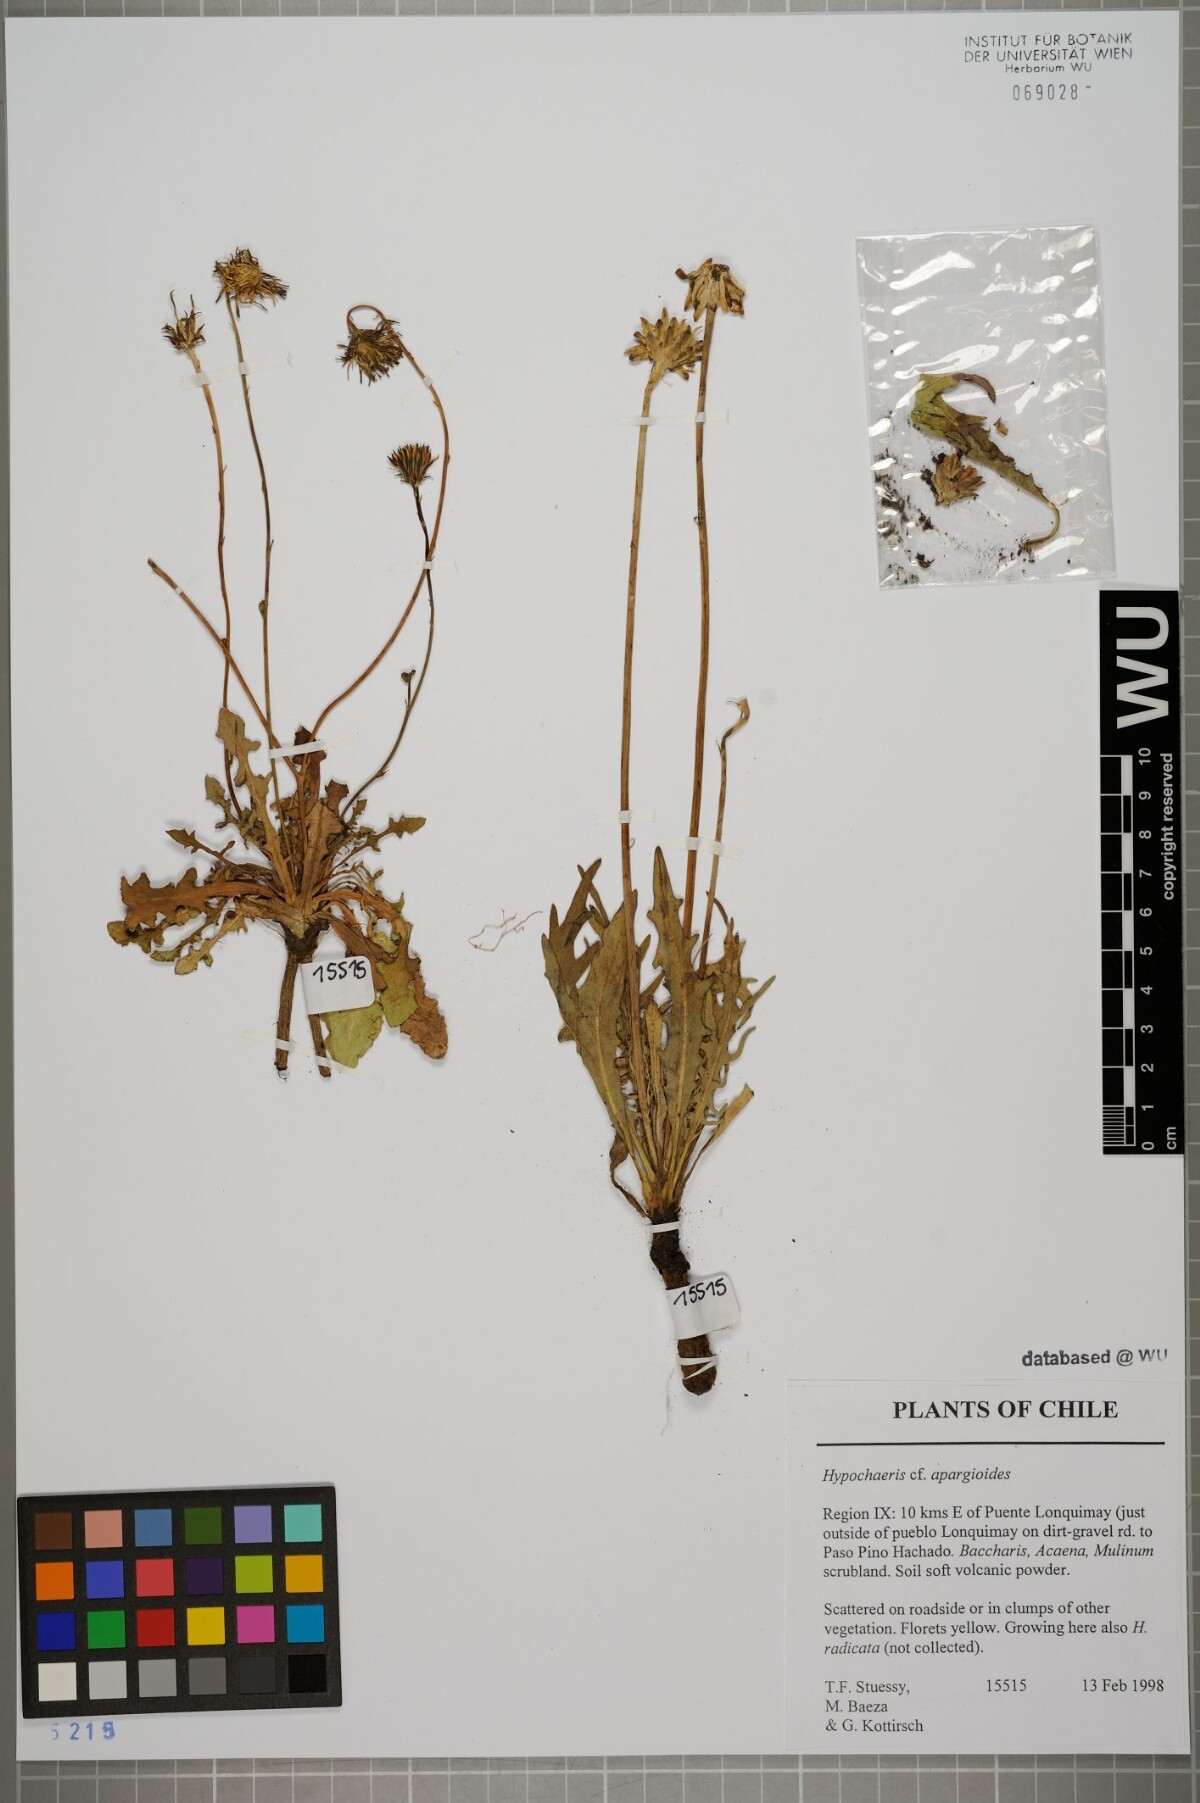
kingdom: Plantae
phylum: Tracheophyta
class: Magnoliopsida
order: Asterales
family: Asteraceae
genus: Hypochaeris
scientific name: Hypochaeris apargioides
